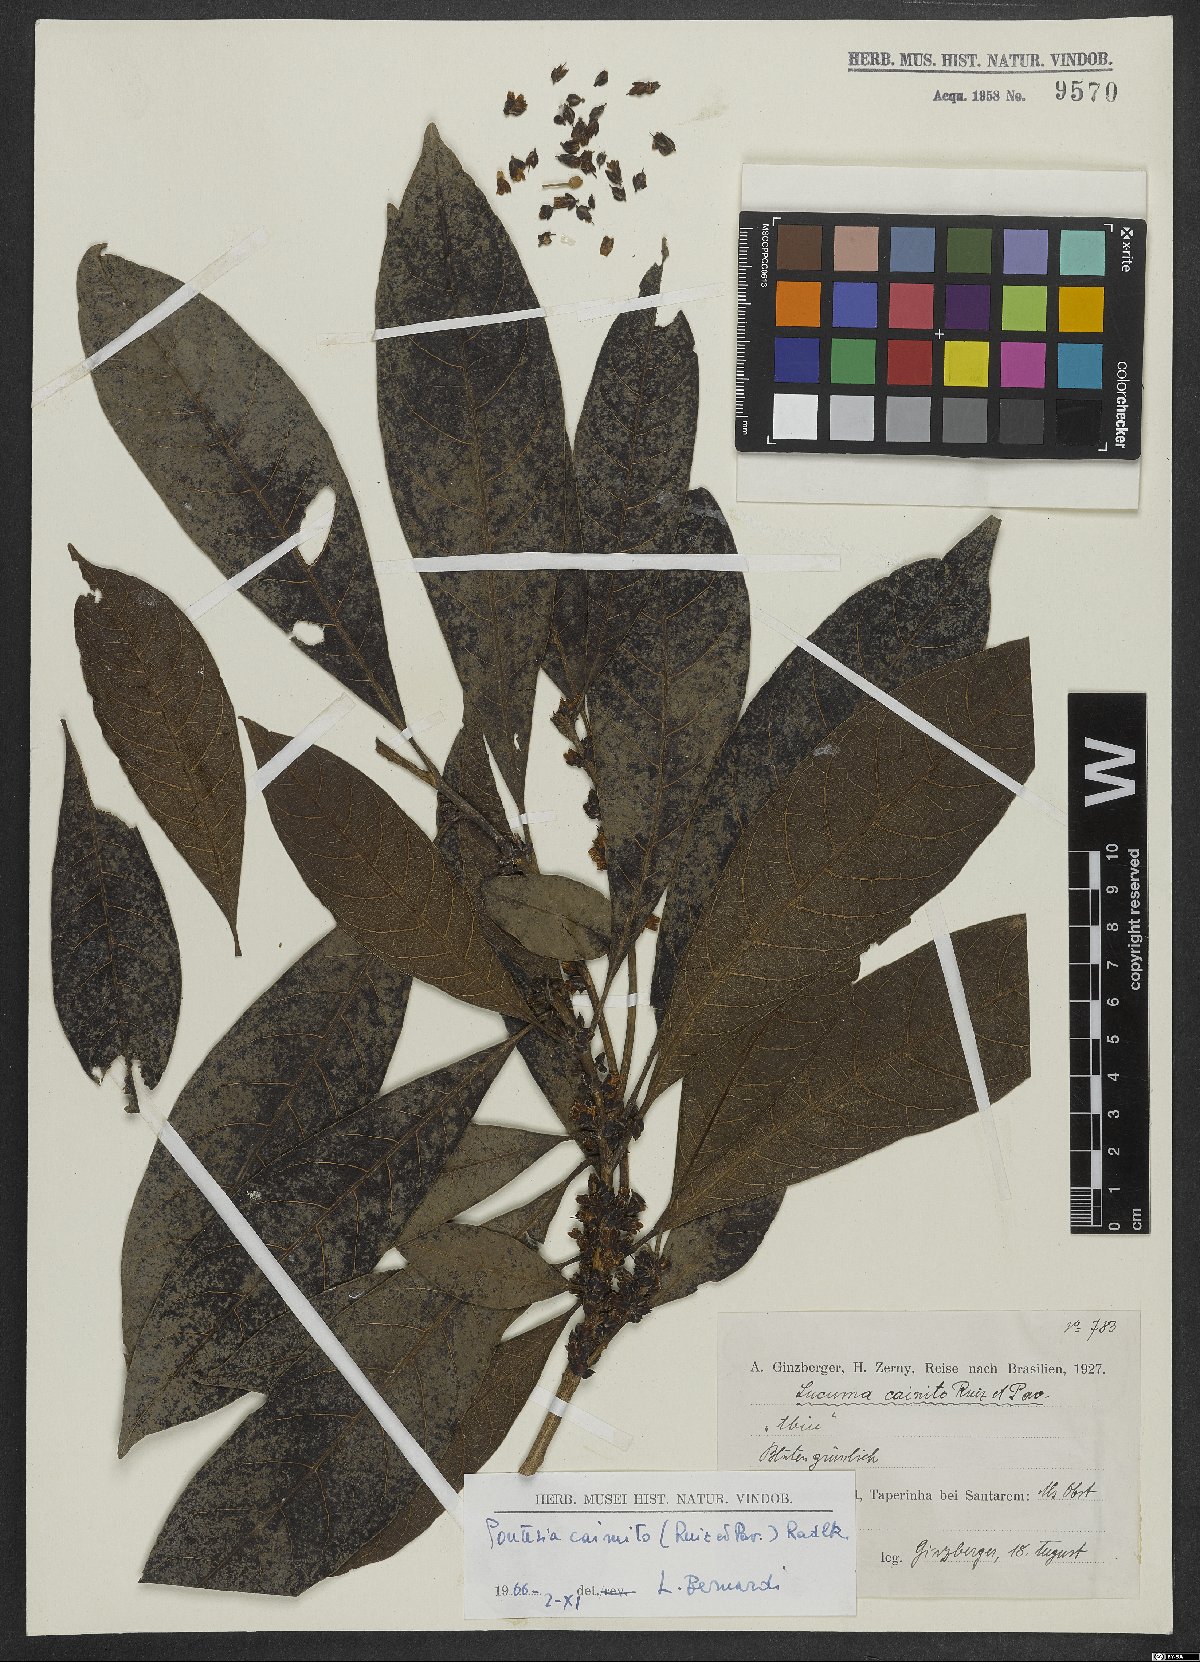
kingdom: Plantae
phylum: Tracheophyta
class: Magnoliopsida
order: Ericales
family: Sapotaceae
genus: Pouteria
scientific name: Pouteria caimito
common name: Caimito
